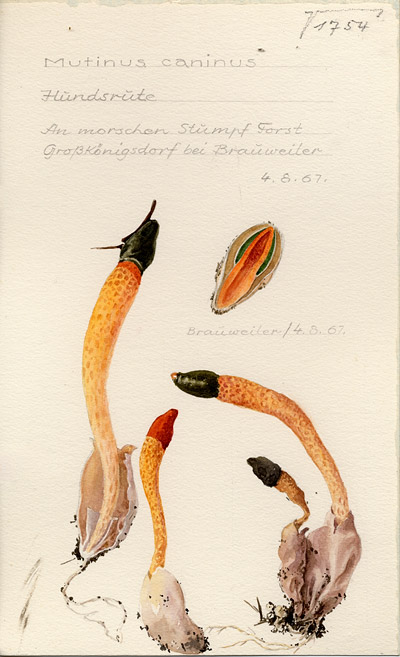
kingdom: Fungi
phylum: Basidiomycota
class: Agaricomycetes
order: Phallales
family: Phallaceae
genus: Mutinus
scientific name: Mutinus caninus
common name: Dog stinkhorn
